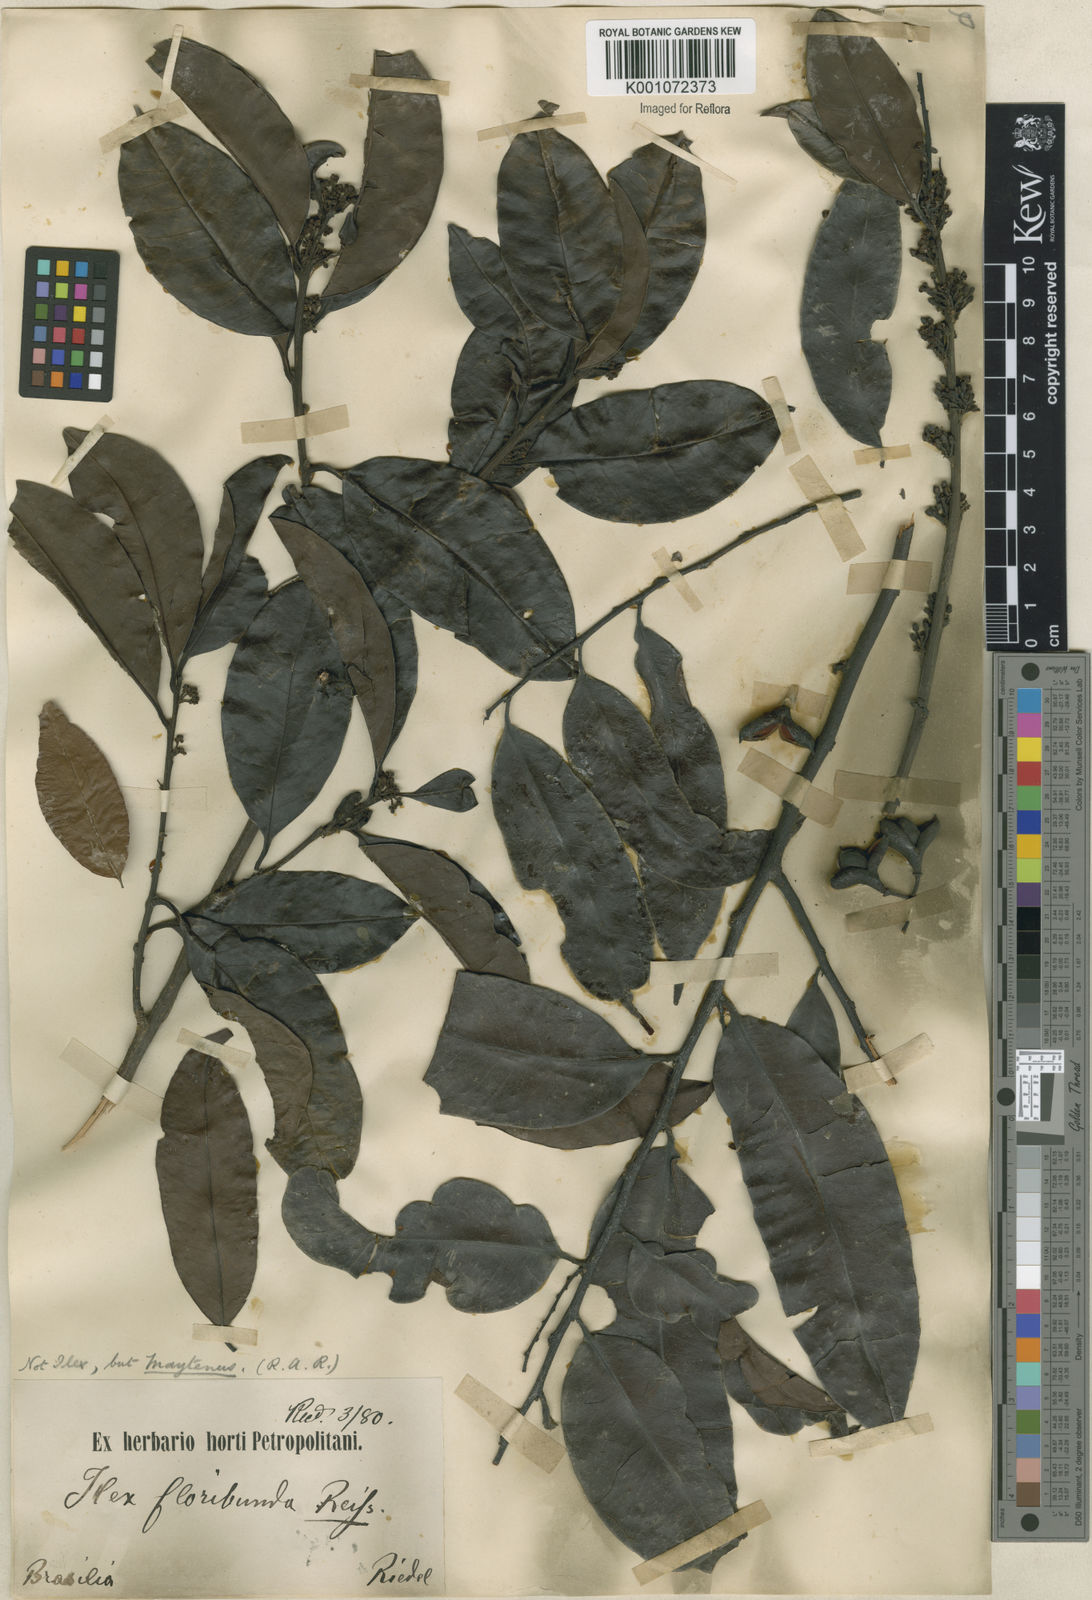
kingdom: Plantae
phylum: Tracheophyta
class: Magnoliopsida
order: Celastrales
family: Celastraceae
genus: Maytenus
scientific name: Maytenus
